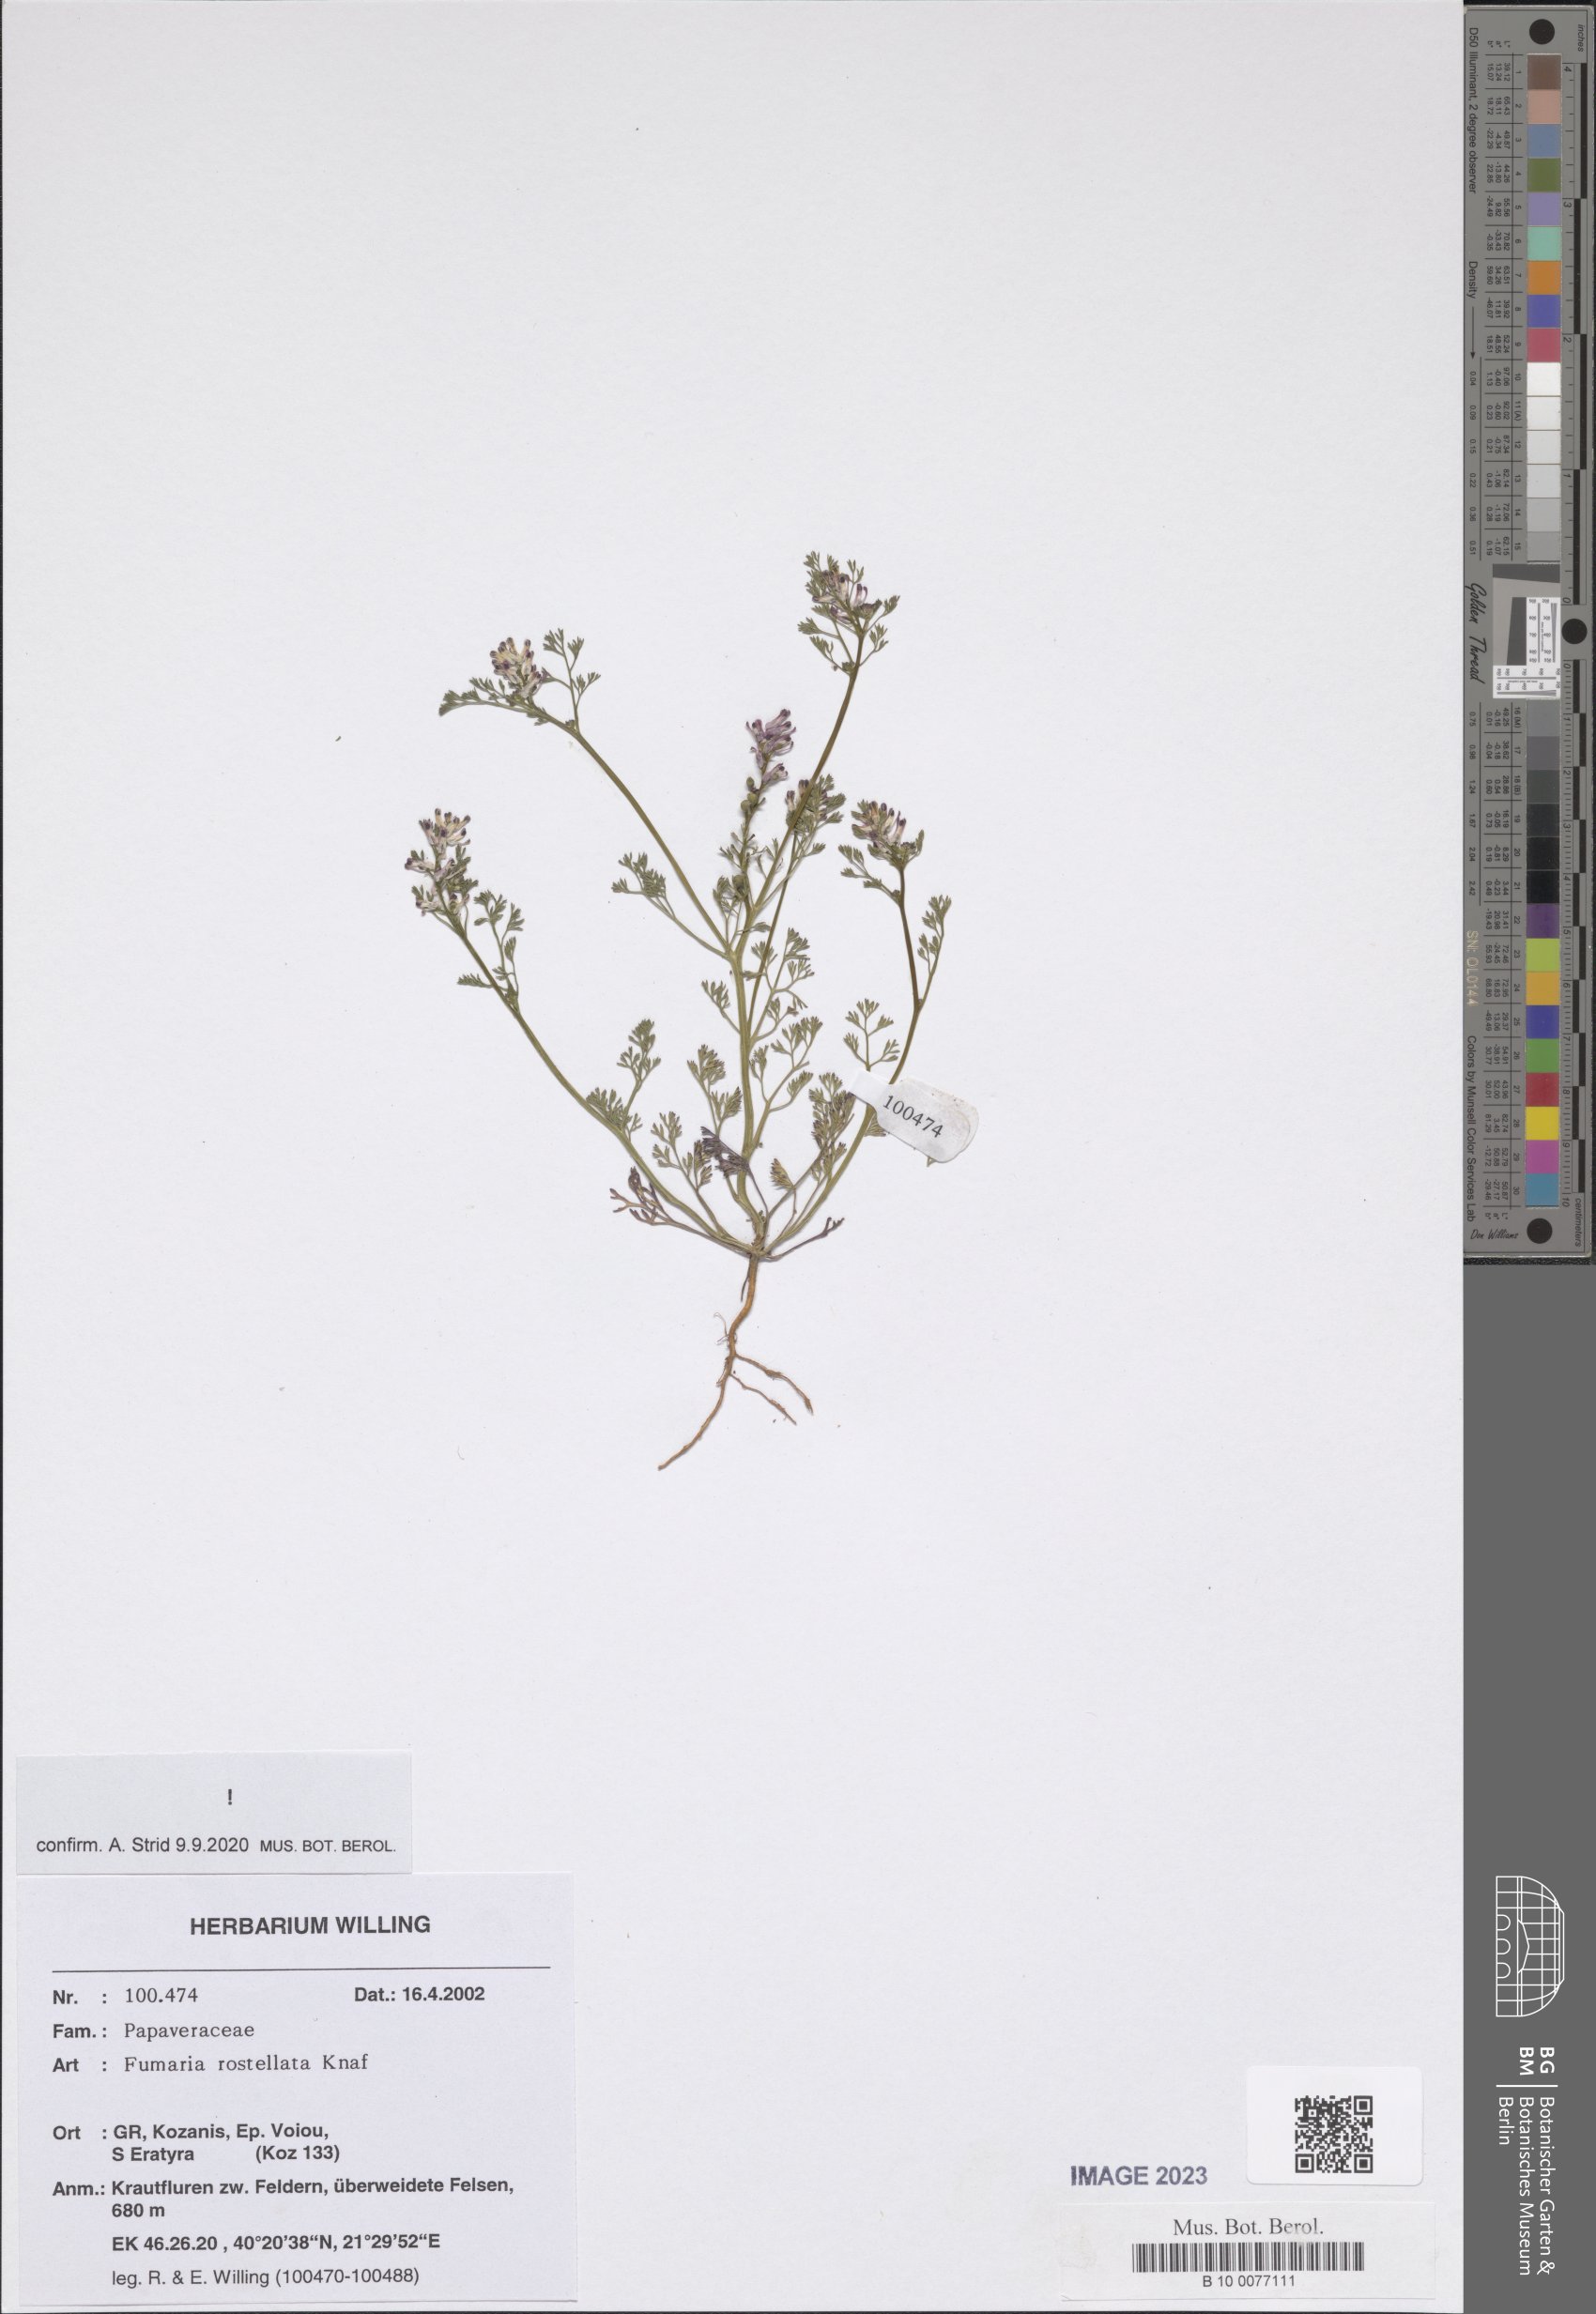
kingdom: Plantae
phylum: Tracheophyta
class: Magnoliopsida
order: Ranunculales
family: Papaveraceae
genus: Fumaria
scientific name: Fumaria rostellata
